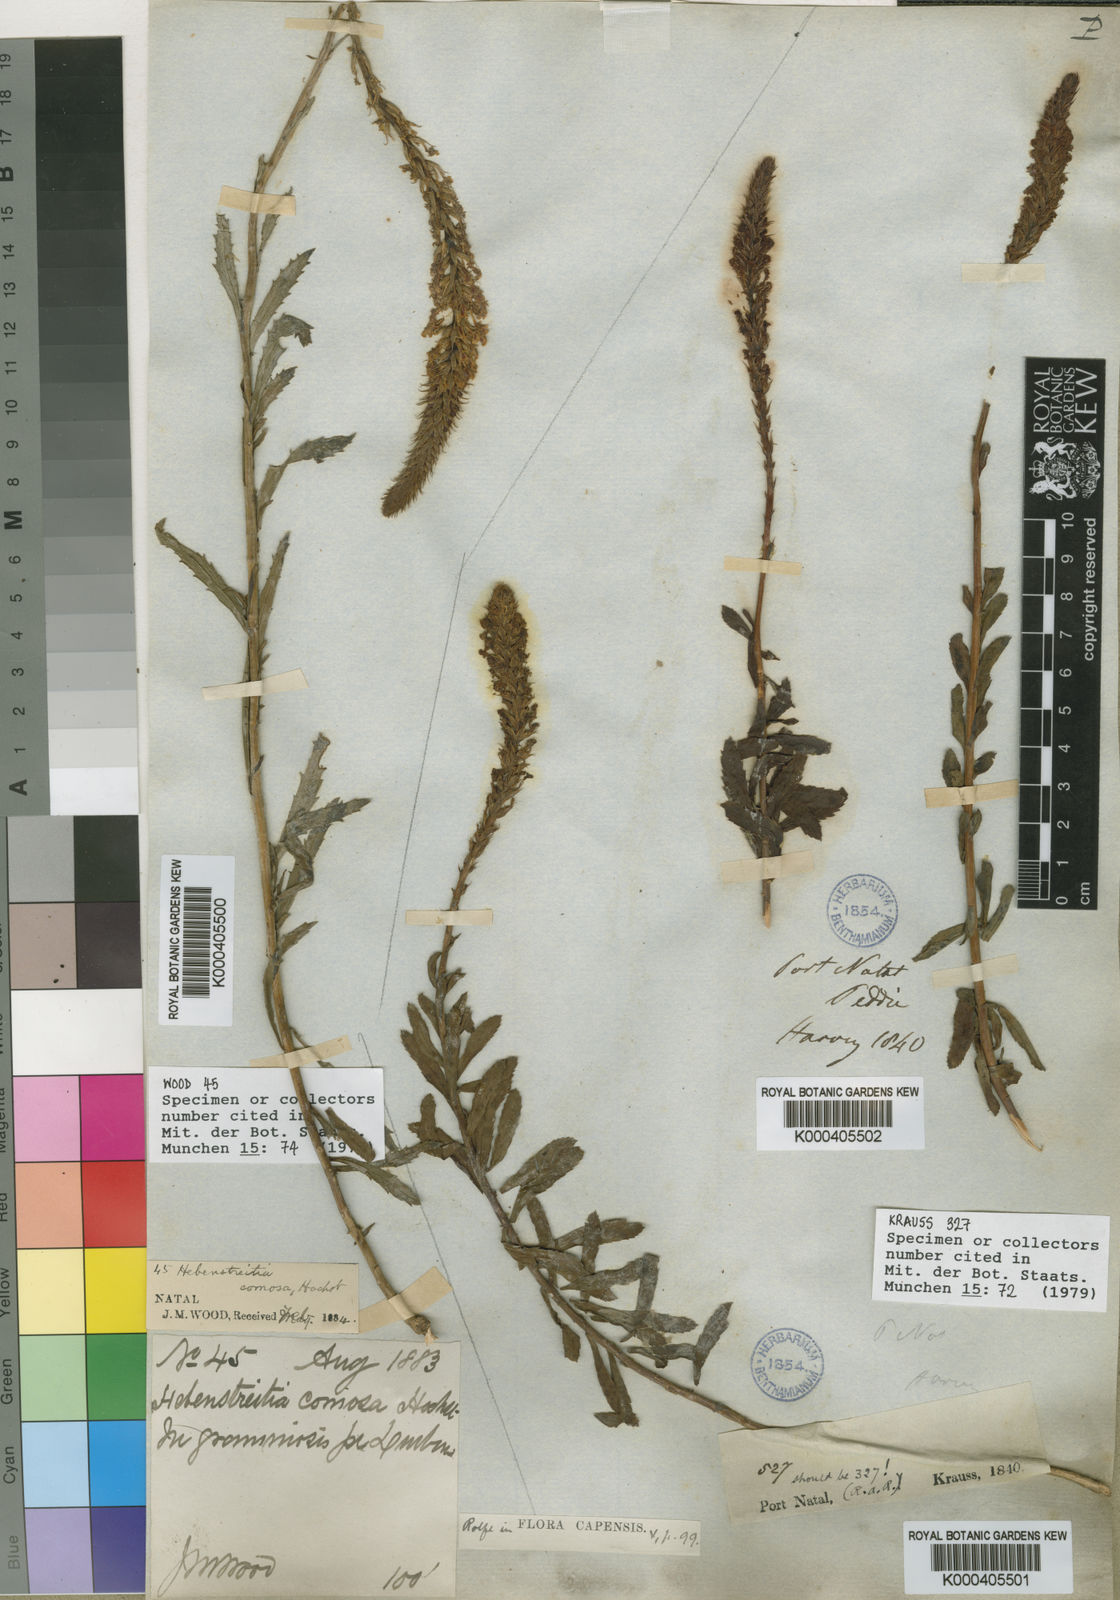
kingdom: Plantae
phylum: Tracheophyta
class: Magnoliopsida
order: Lamiales
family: Scrophulariaceae
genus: Hebenstretia
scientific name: Hebenstretia comosa
